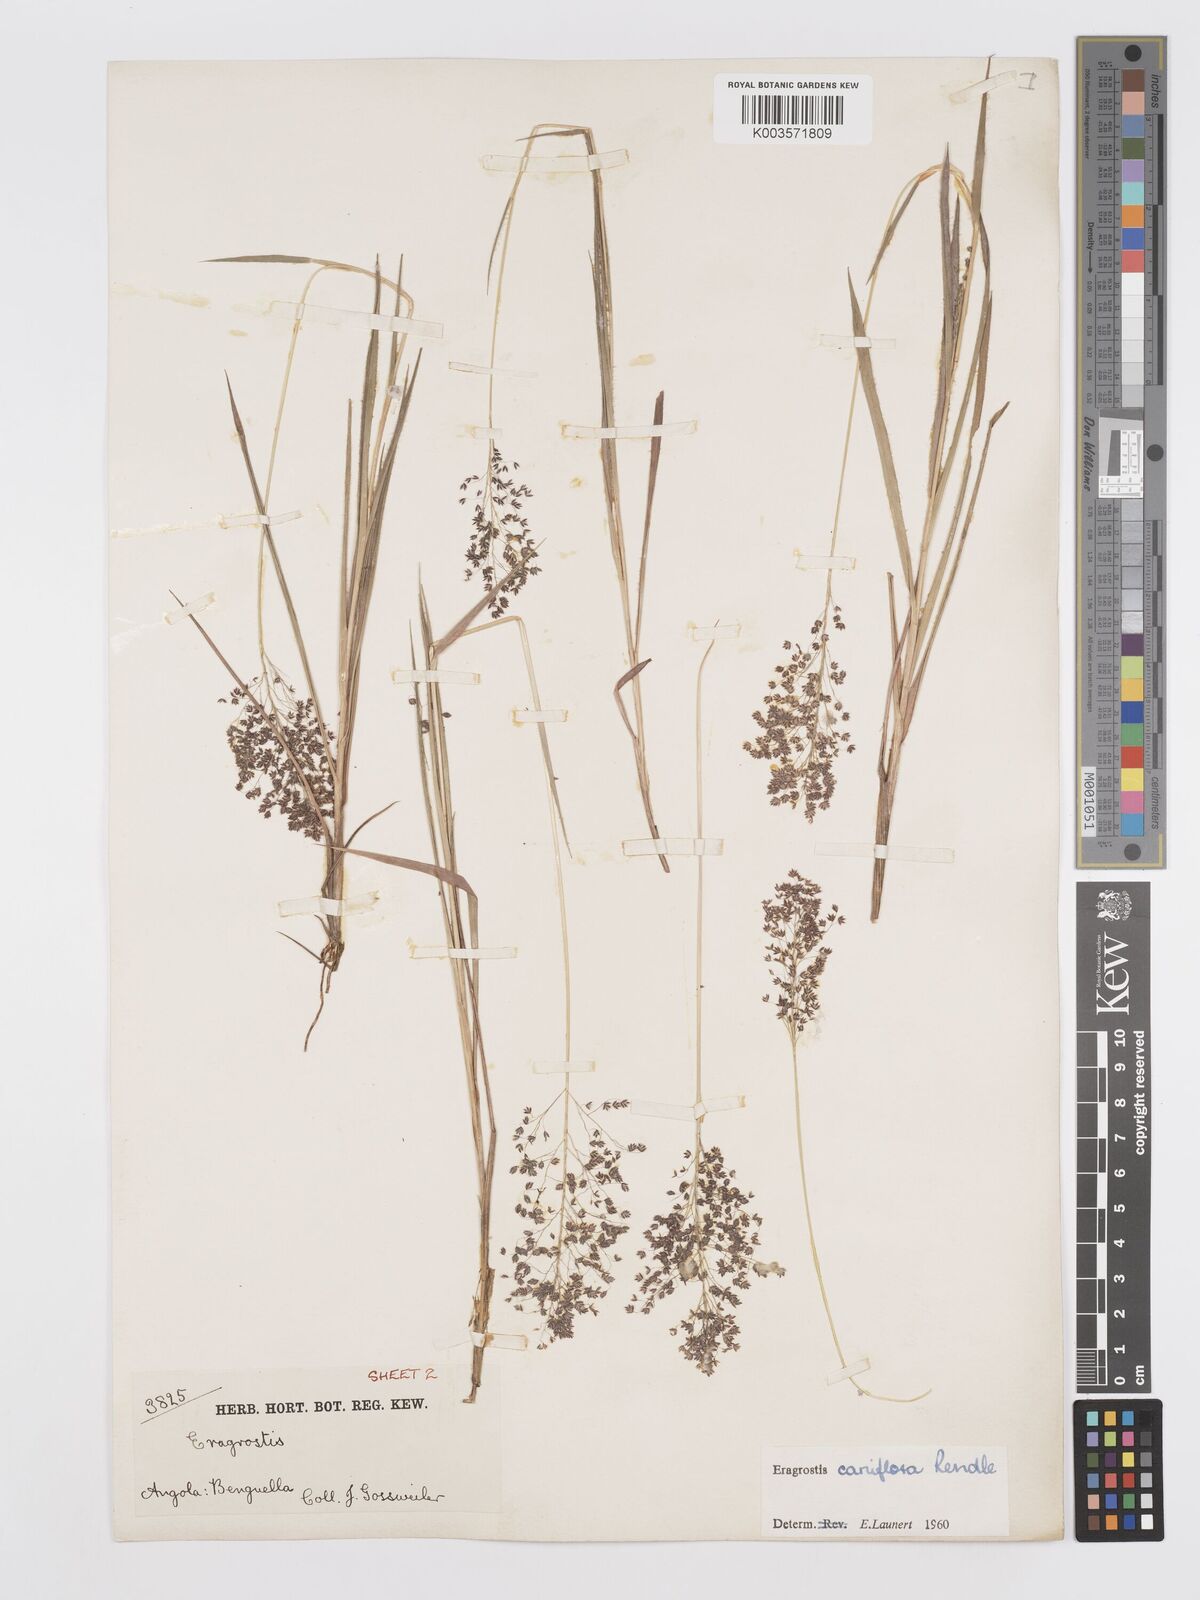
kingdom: Plantae
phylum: Tracheophyta
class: Liliopsida
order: Poales
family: Poaceae
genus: Eragrostis
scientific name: Eragrostis caniflora
